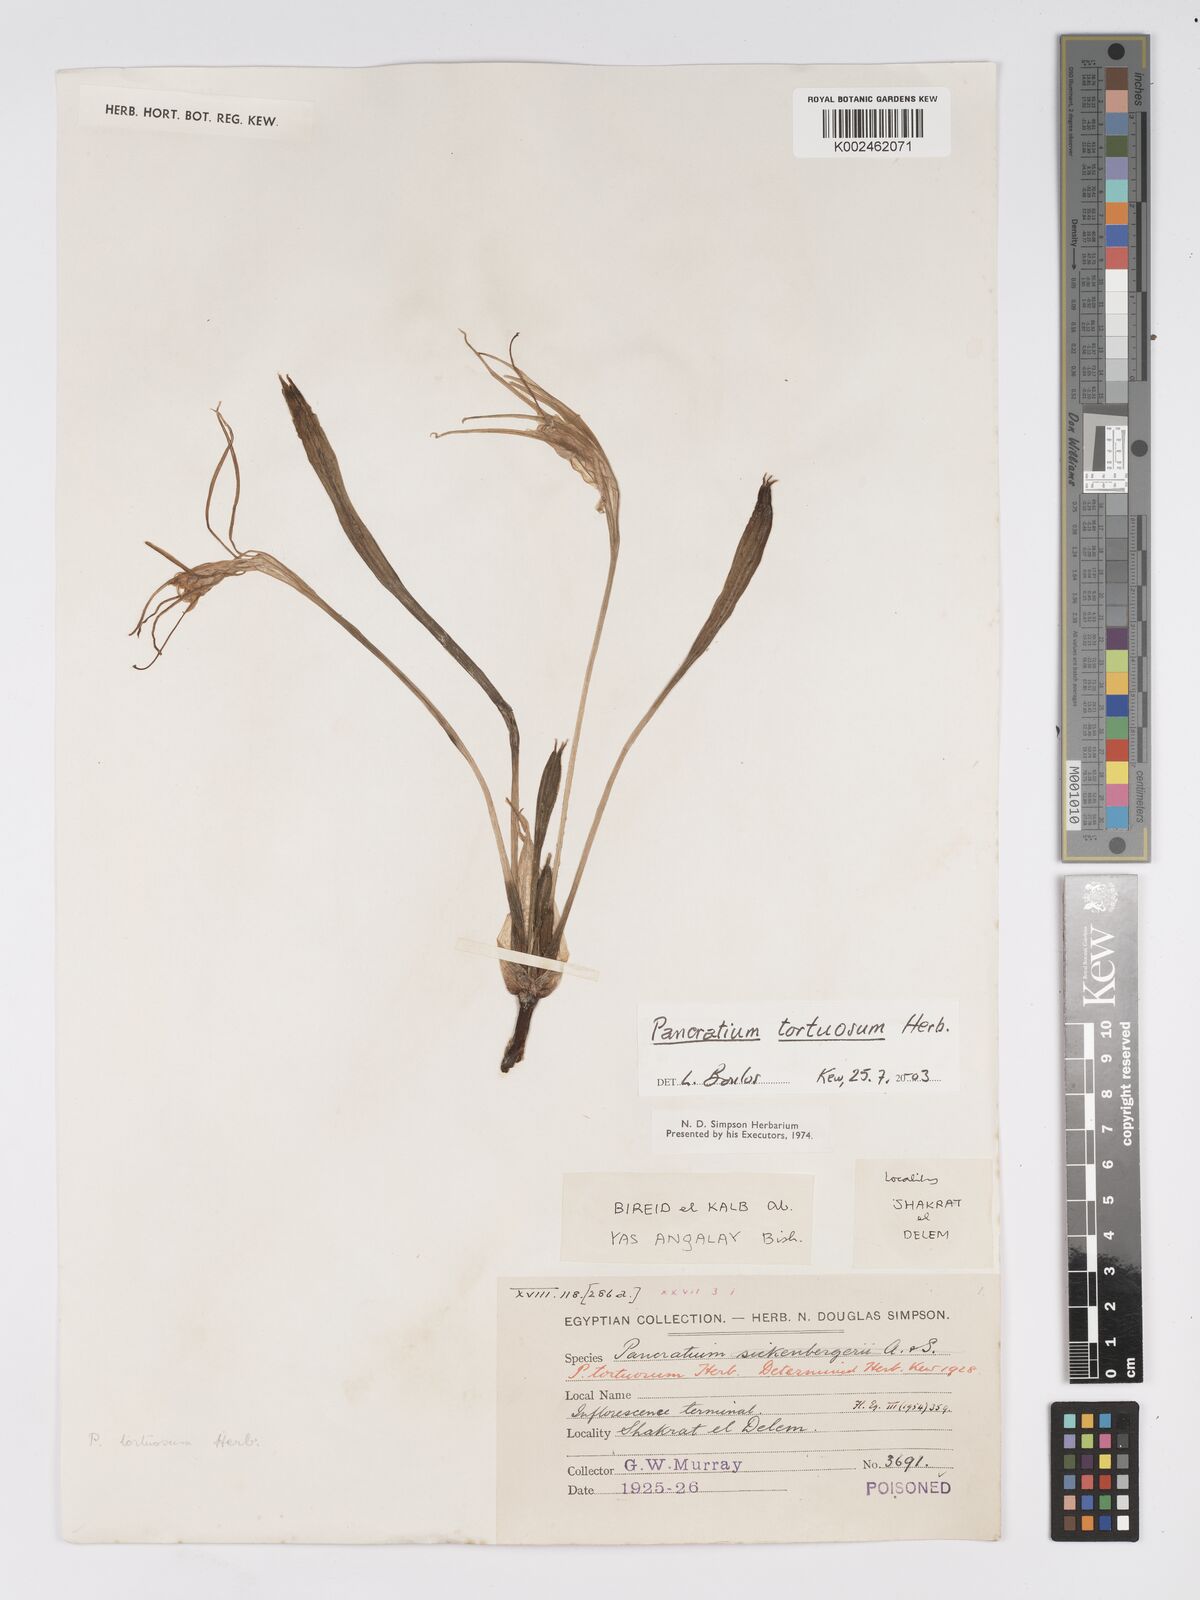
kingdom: Plantae
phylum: Tracheophyta
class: Liliopsida
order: Asparagales
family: Amaryllidaceae
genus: Pancratium
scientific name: Pancratium tortuosum
